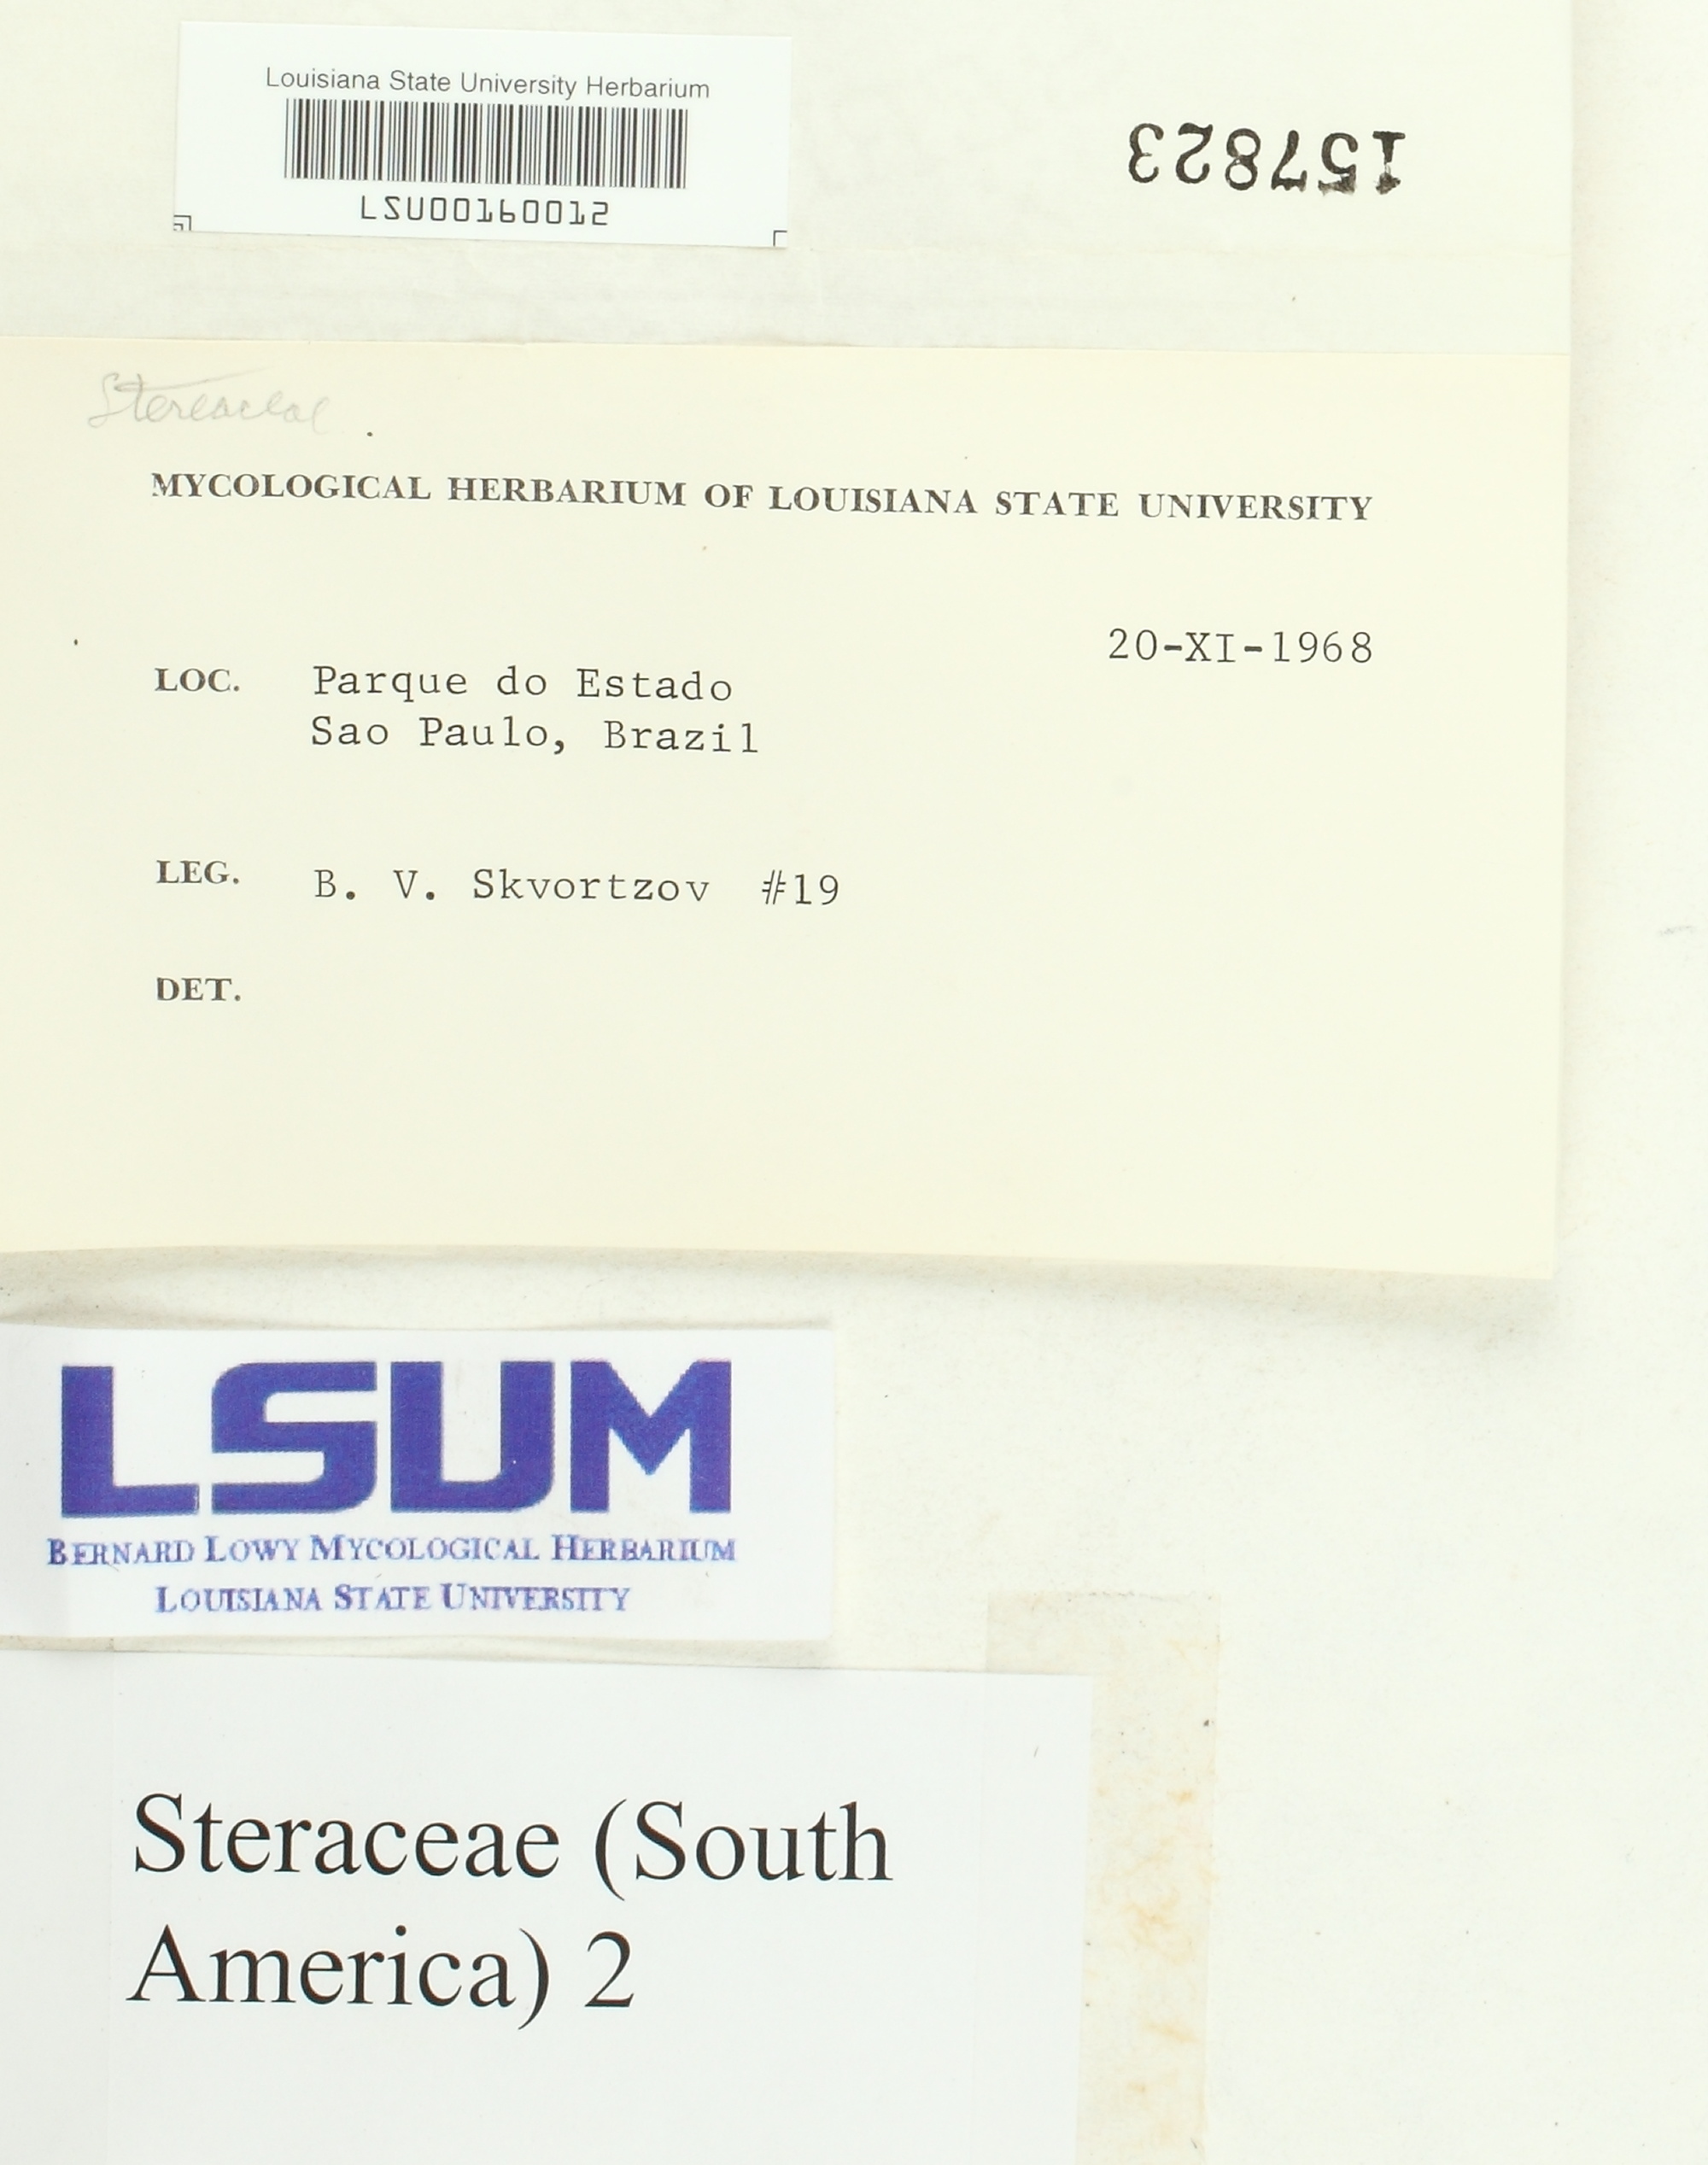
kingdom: Fungi
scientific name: Fungi
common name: Fungi
